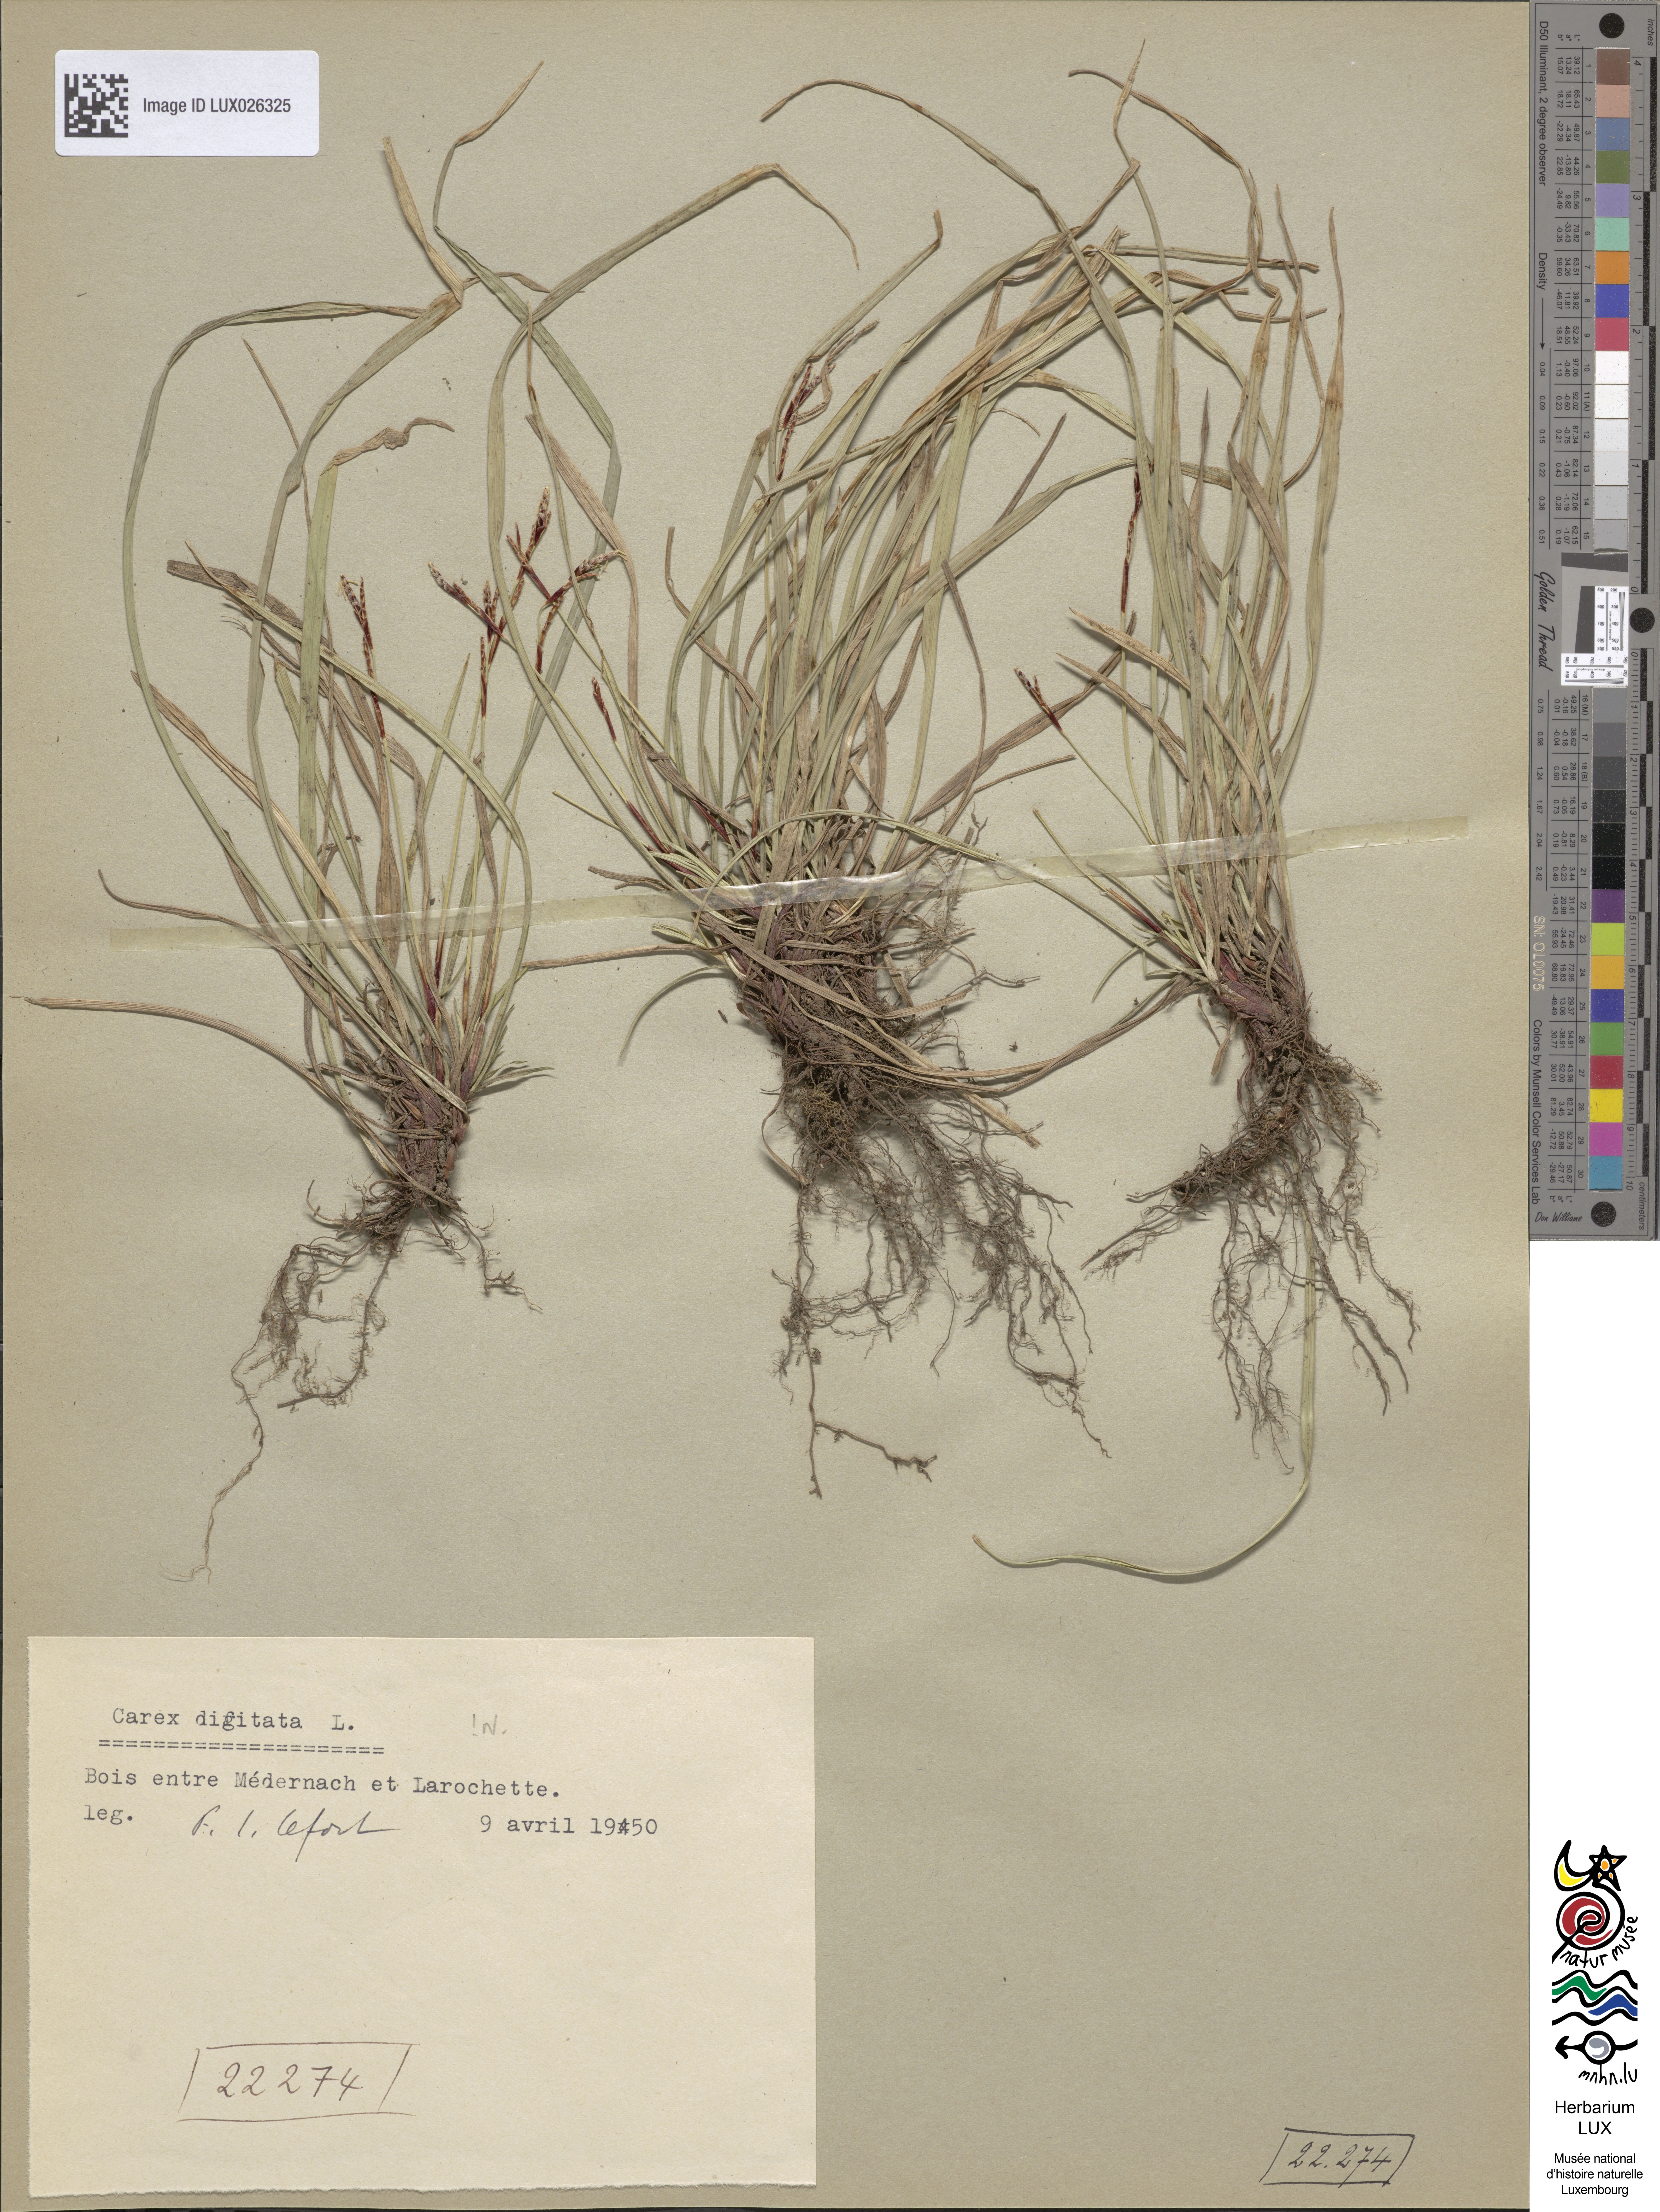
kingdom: Plantae
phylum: Tracheophyta
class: Liliopsida
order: Poales
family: Cyperaceae
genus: Carex
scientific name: Carex digitata
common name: Fingered sedge
